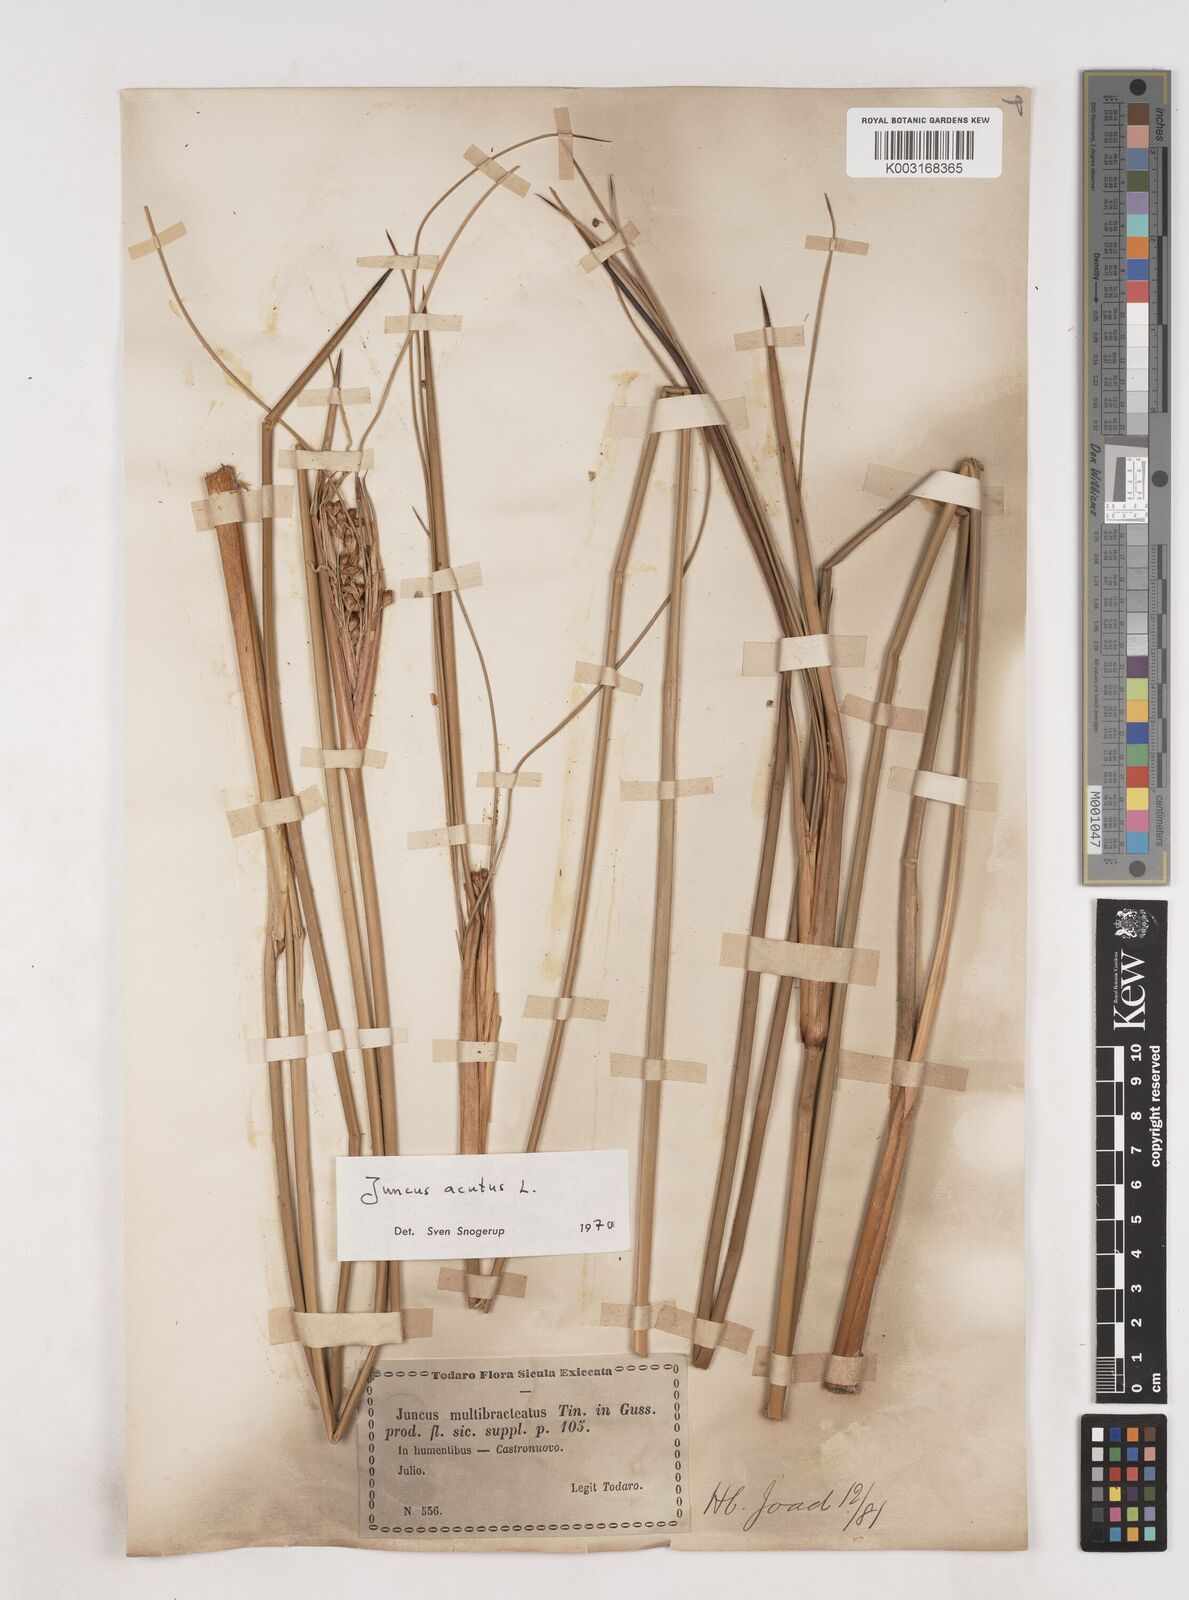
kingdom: Plantae
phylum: Tracheophyta
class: Liliopsida
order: Poales
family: Juncaceae
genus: Juncus
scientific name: Juncus acutus
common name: Sharp rush
